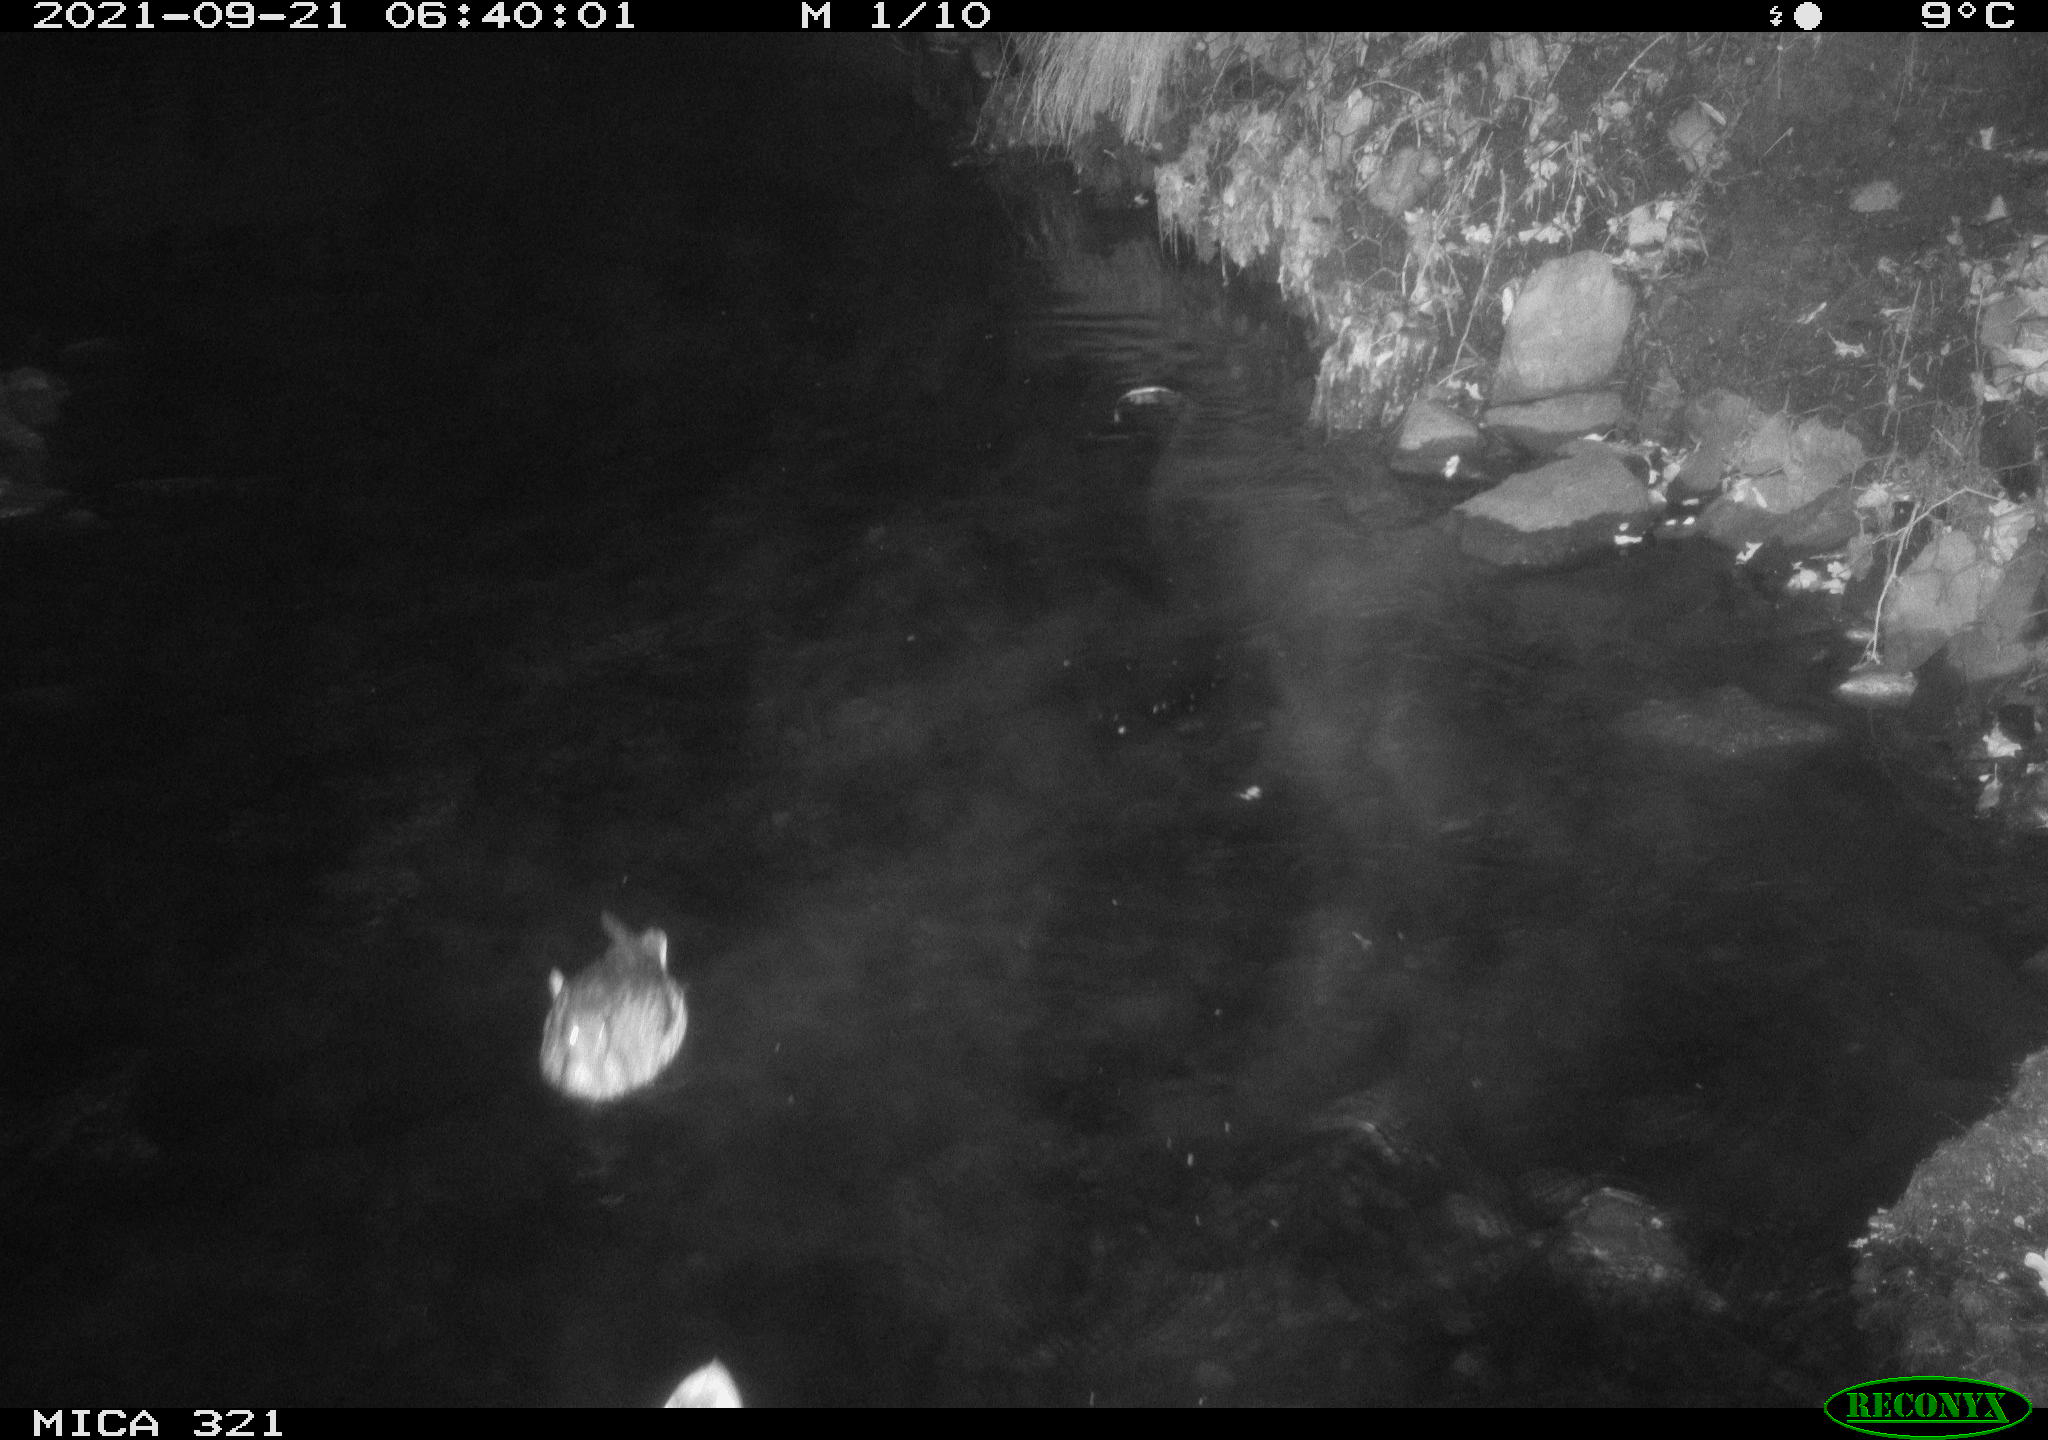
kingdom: Animalia
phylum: Chordata
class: Aves
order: Anseriformes
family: Anatidae
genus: Anas
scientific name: Anas platyrhynchos
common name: Mallard
